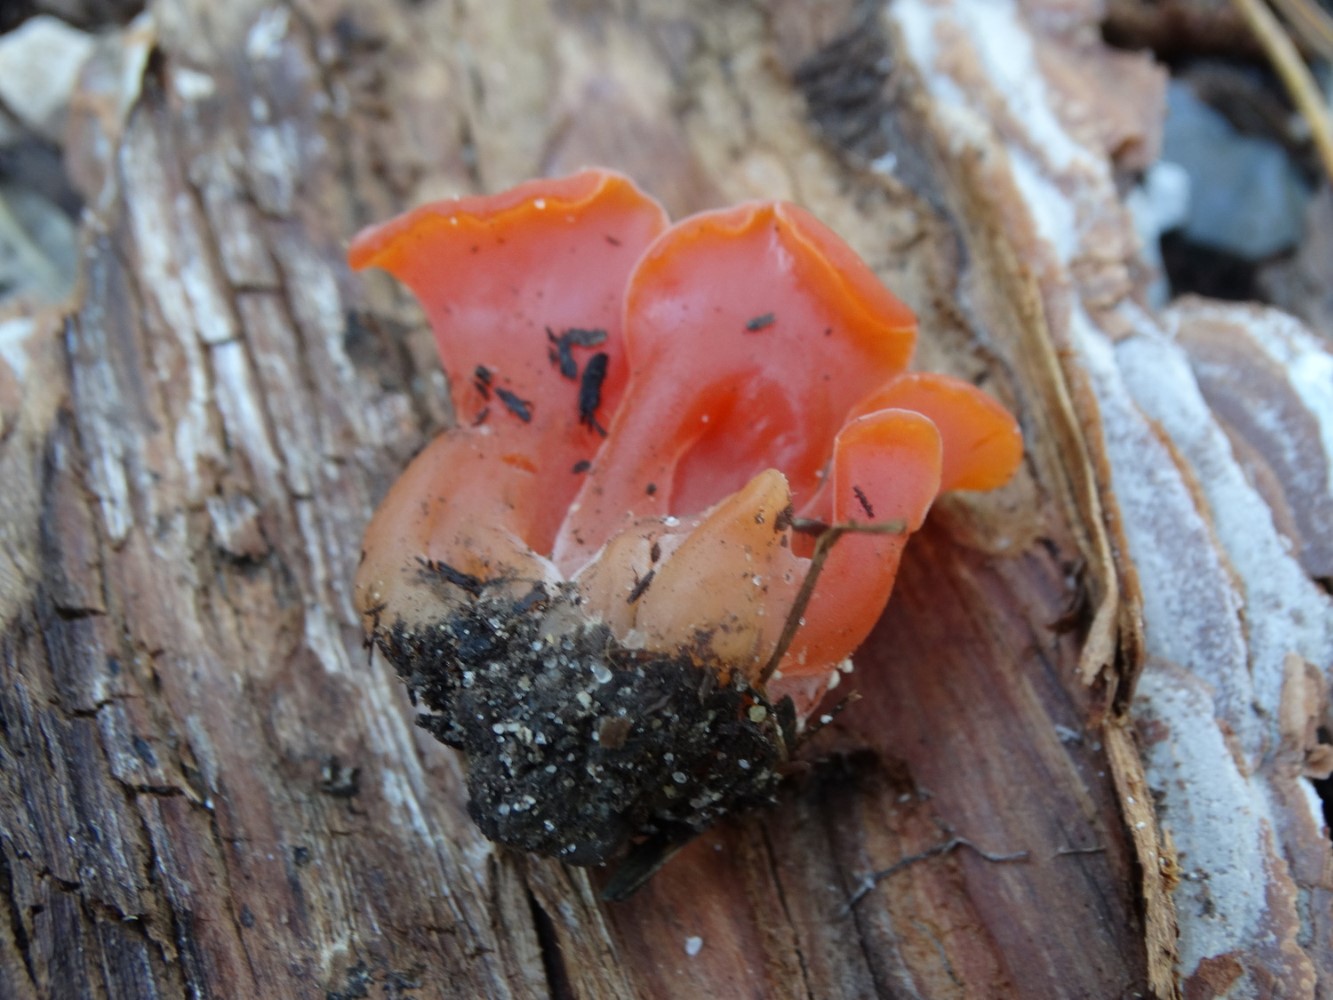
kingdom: Fungi
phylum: Basidiomycota
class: Agaricomycetes
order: Auriculariales
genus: Guepinia
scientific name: Guepinia helvelloides
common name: bævretunge
